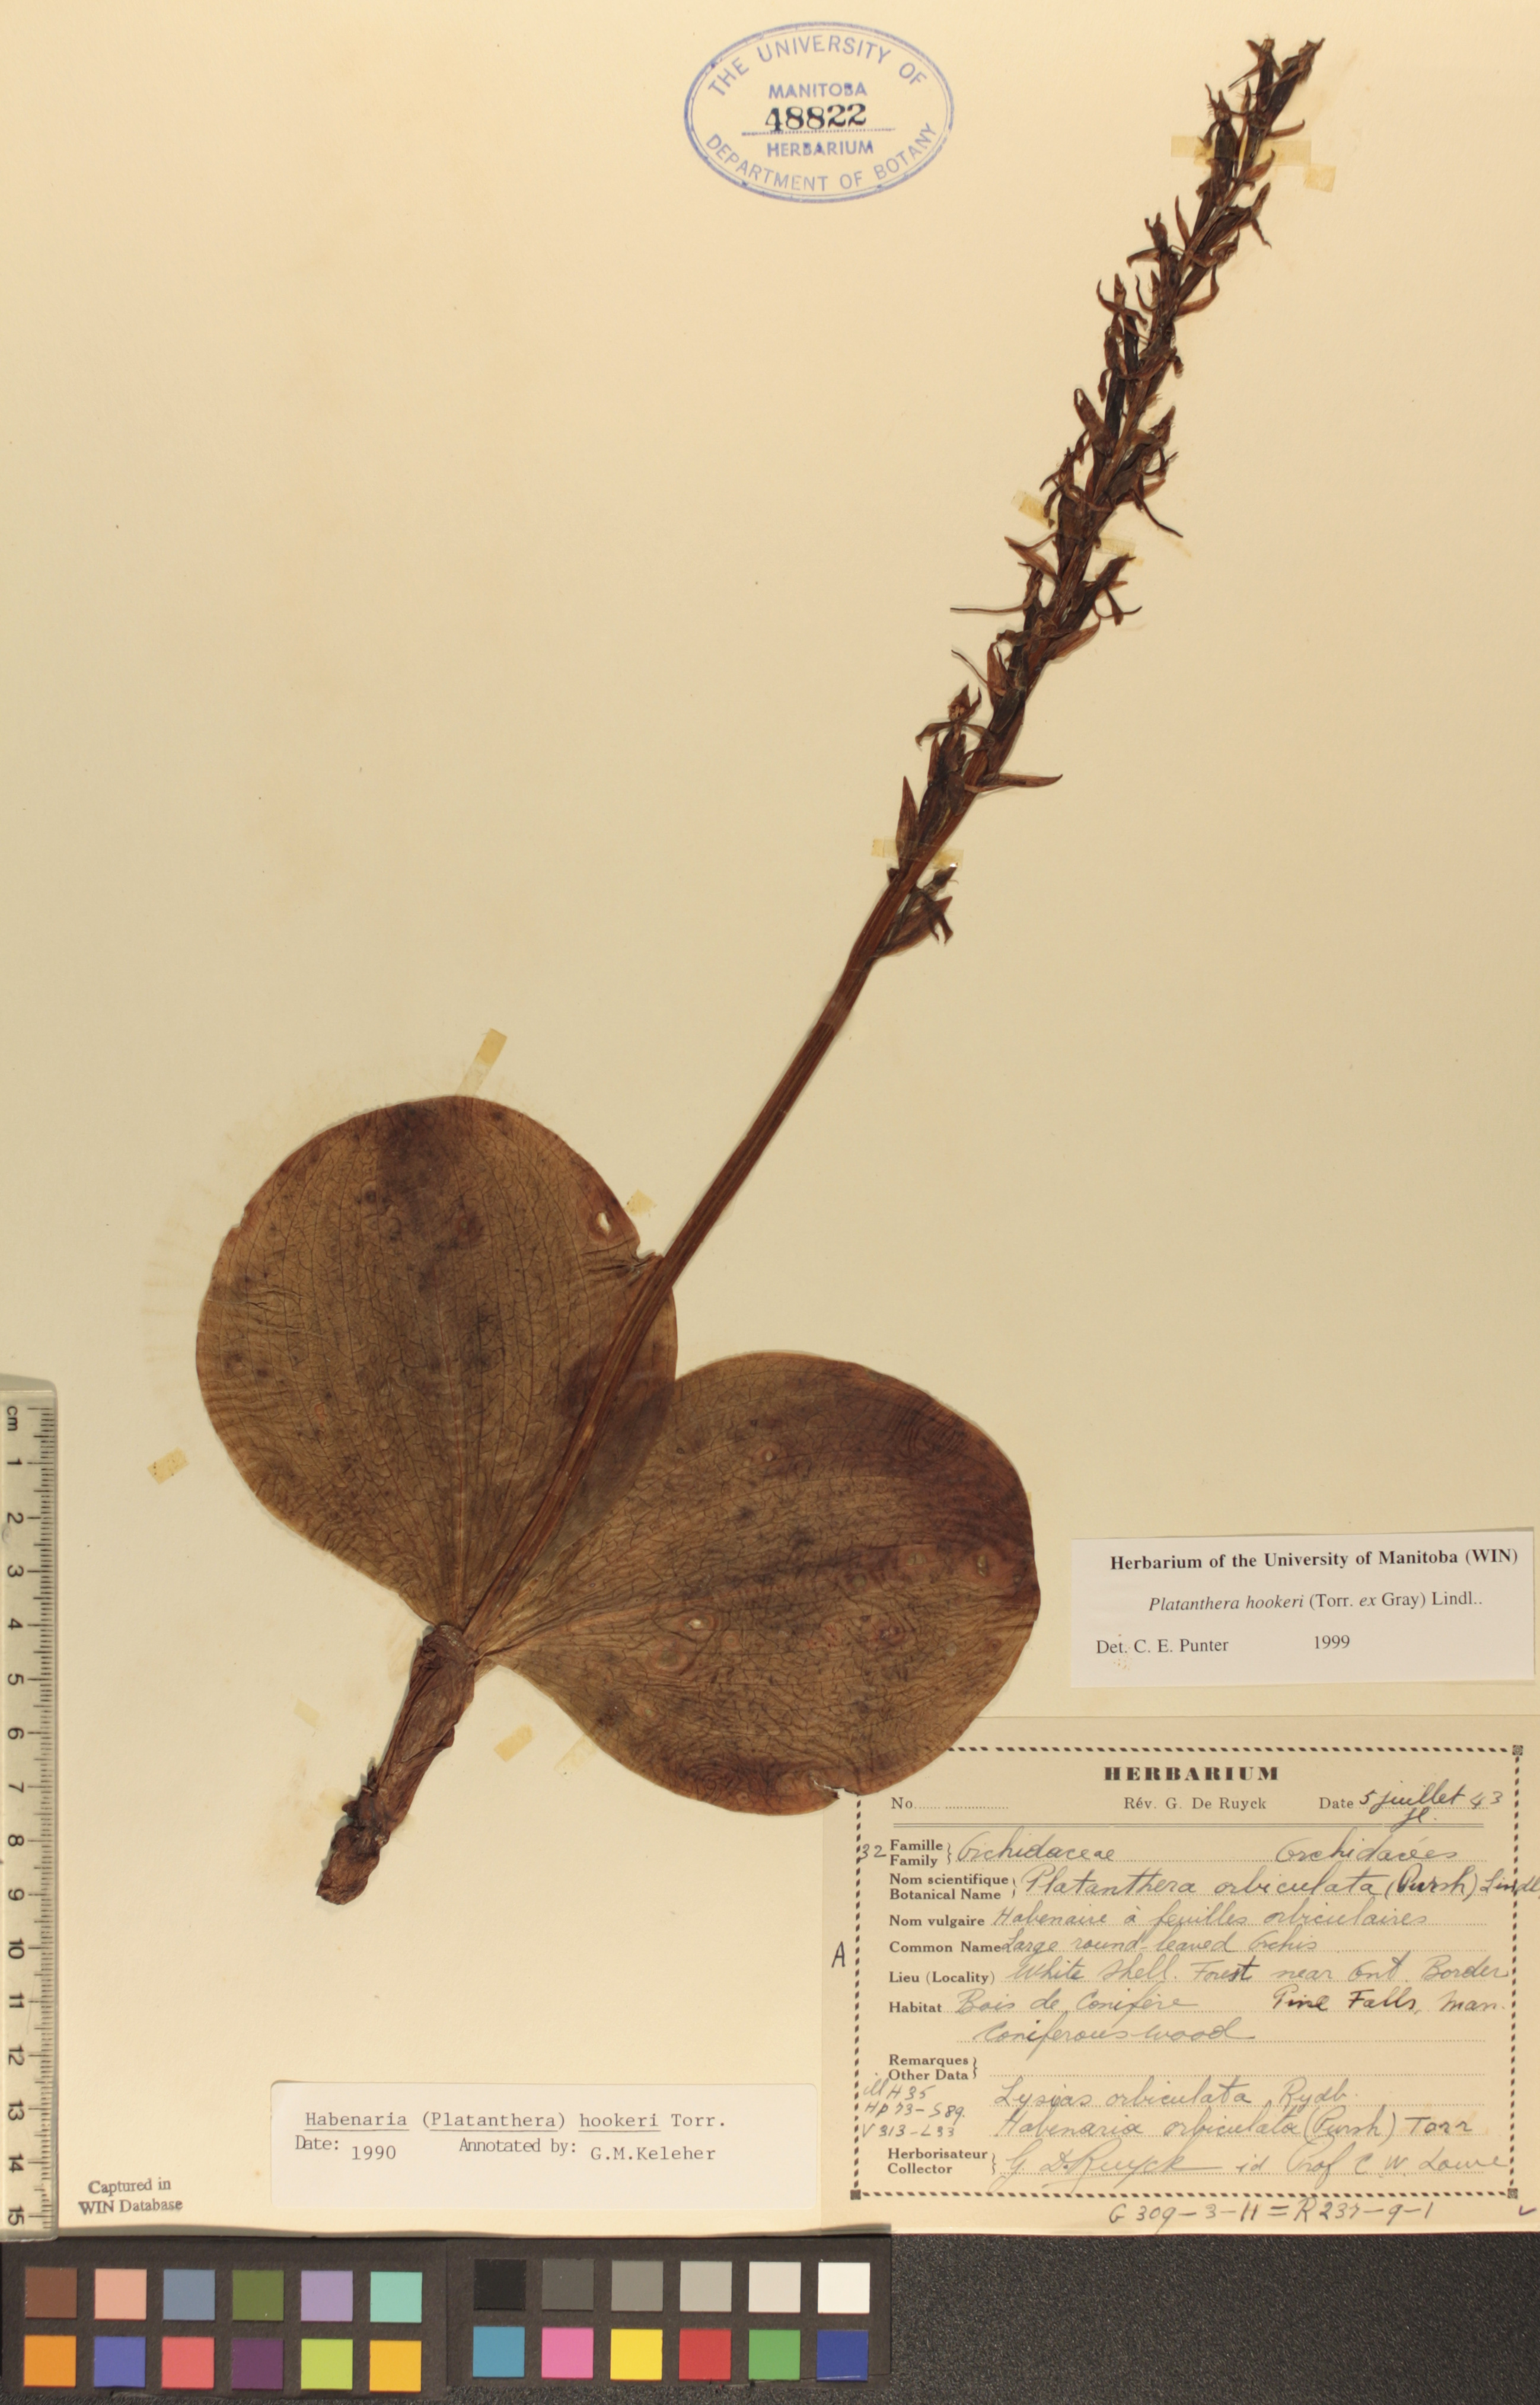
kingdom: Plantae
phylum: Tracheophyta
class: Liliopsida
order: Asparagales
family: Orchidaceae
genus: Platanthera
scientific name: Platanthera hookeri
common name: Hooker's orchid
